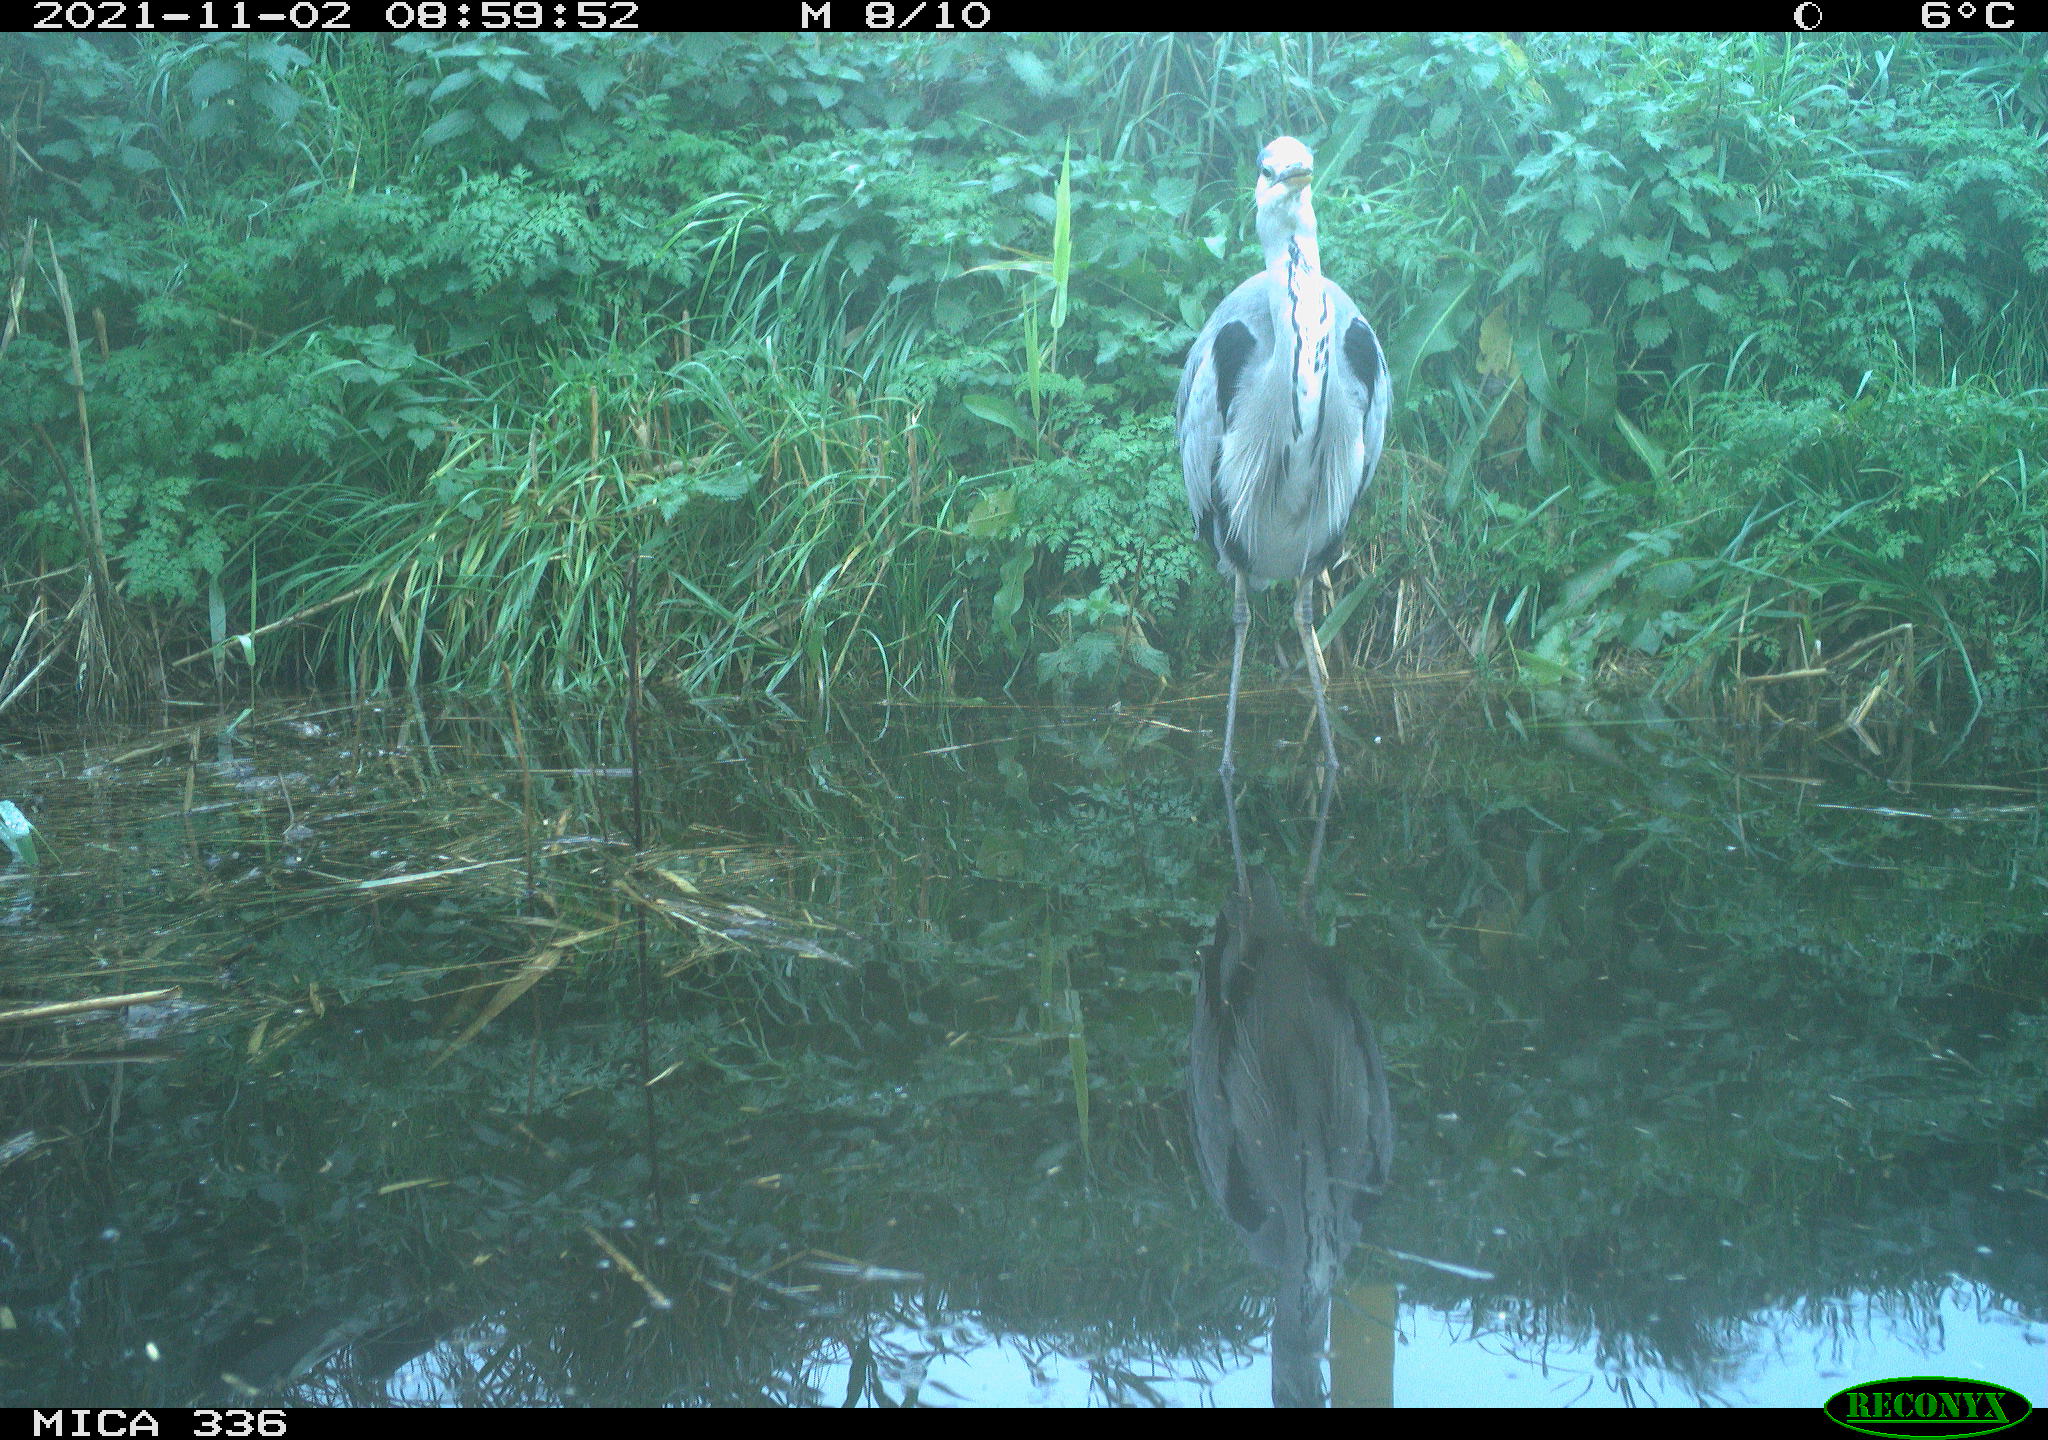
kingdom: Animalia
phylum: Chordata
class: Aves
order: Pelecaniformes
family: Ardeidae
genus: Ardea
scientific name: Ardea cinerea
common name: Grey heron
